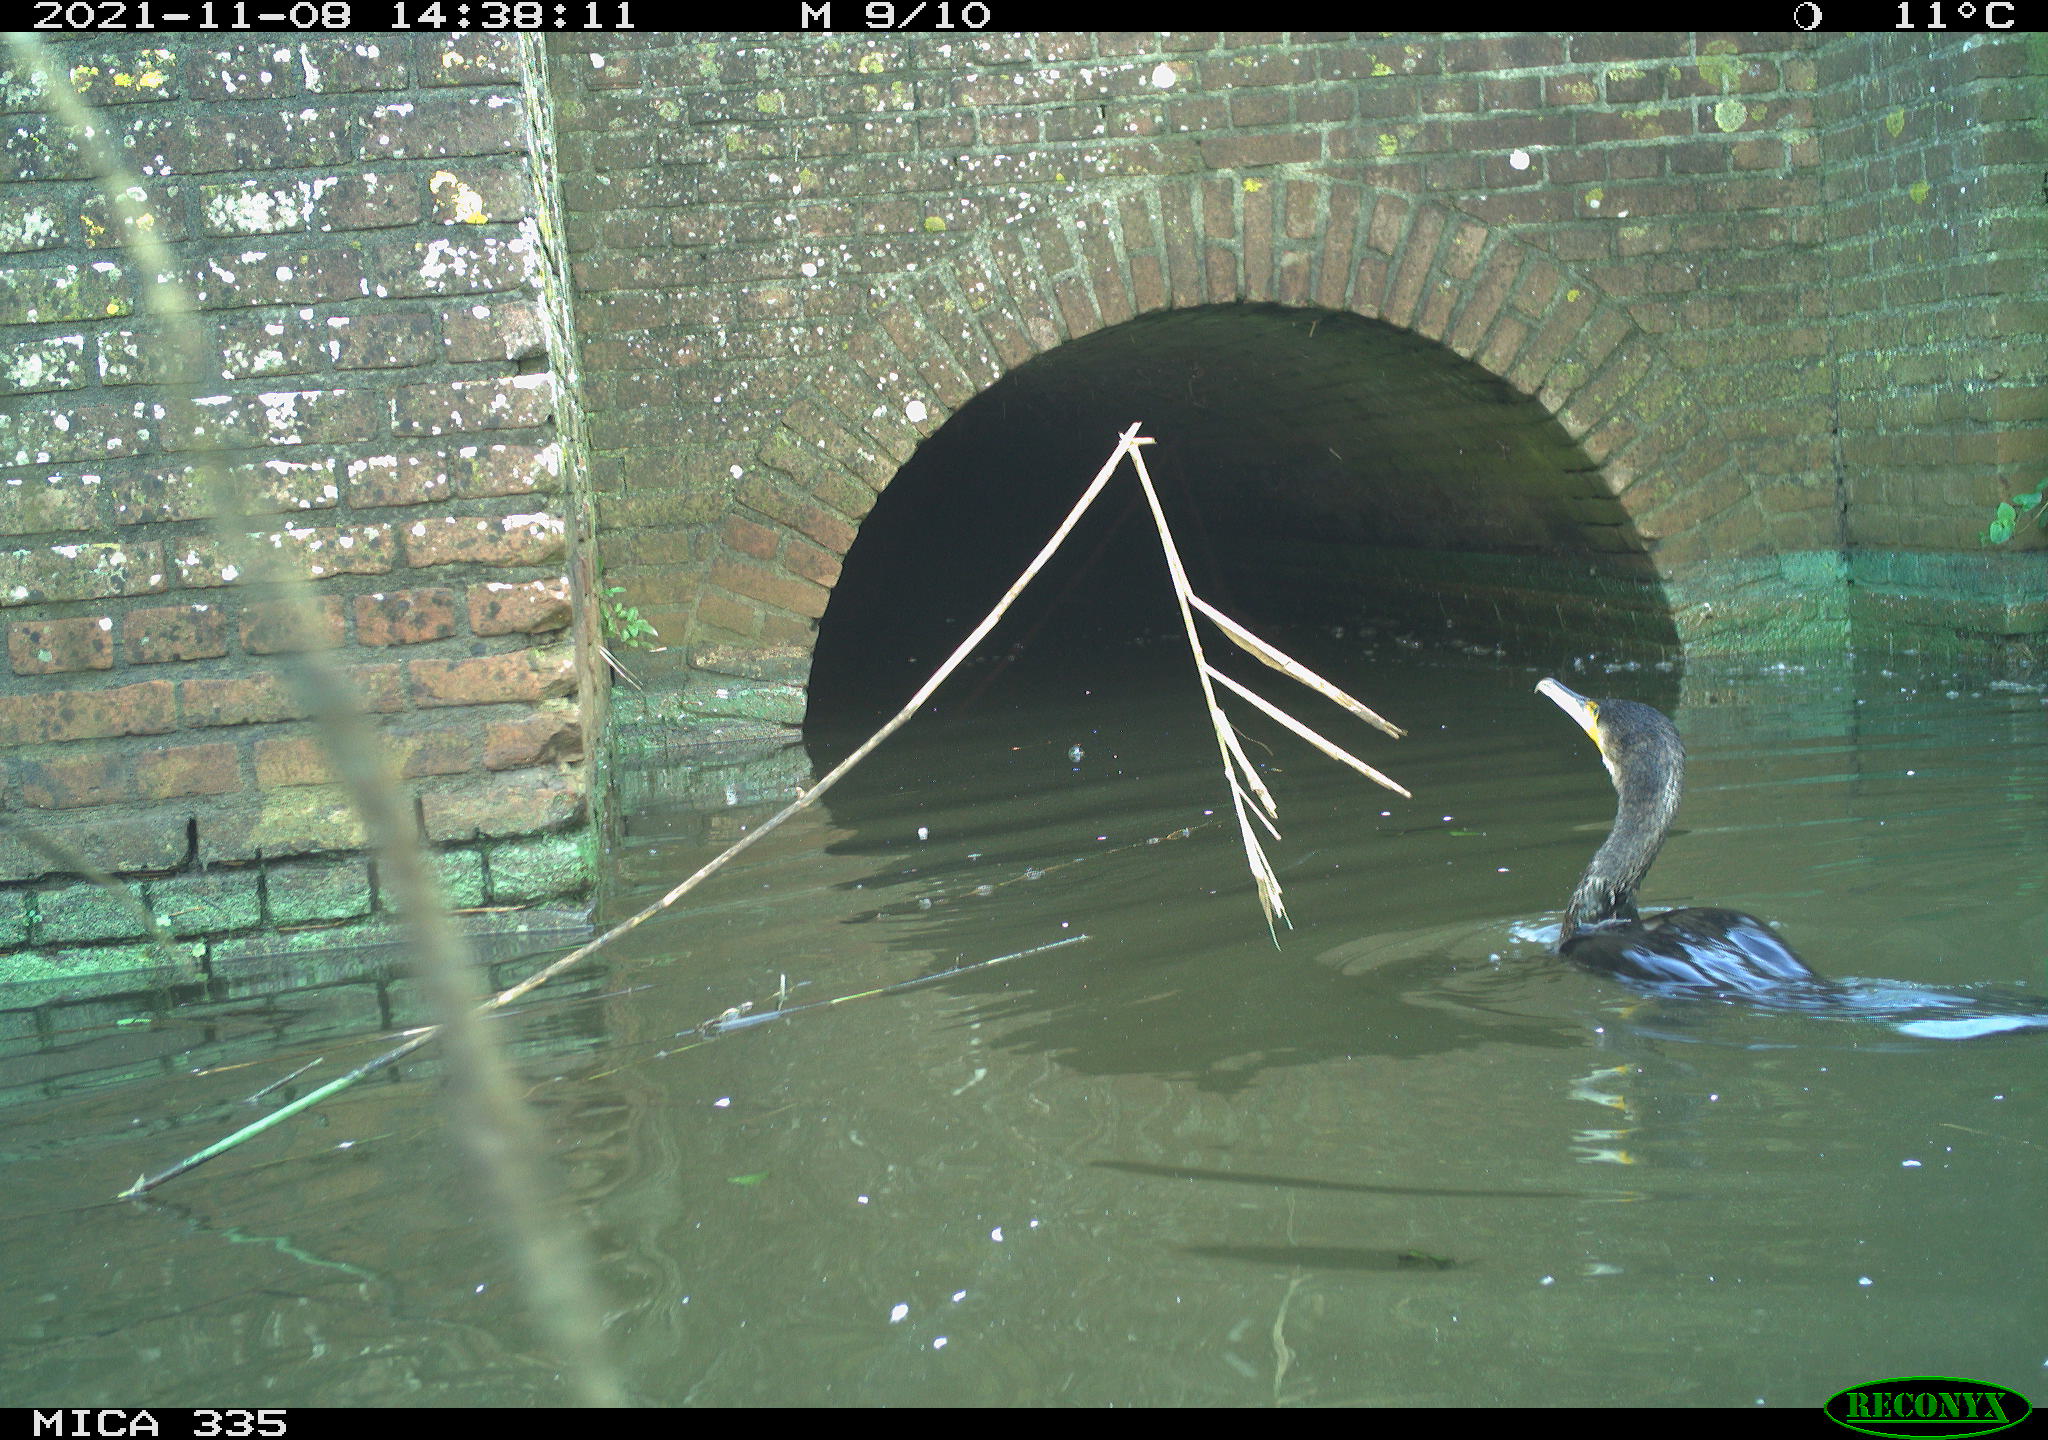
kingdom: Animalia
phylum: Chordata
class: Aves
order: Suliformes
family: Phalacrocoracidae
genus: Phalacrocorax
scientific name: Phalacrocorax carbo
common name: Great cormorant
